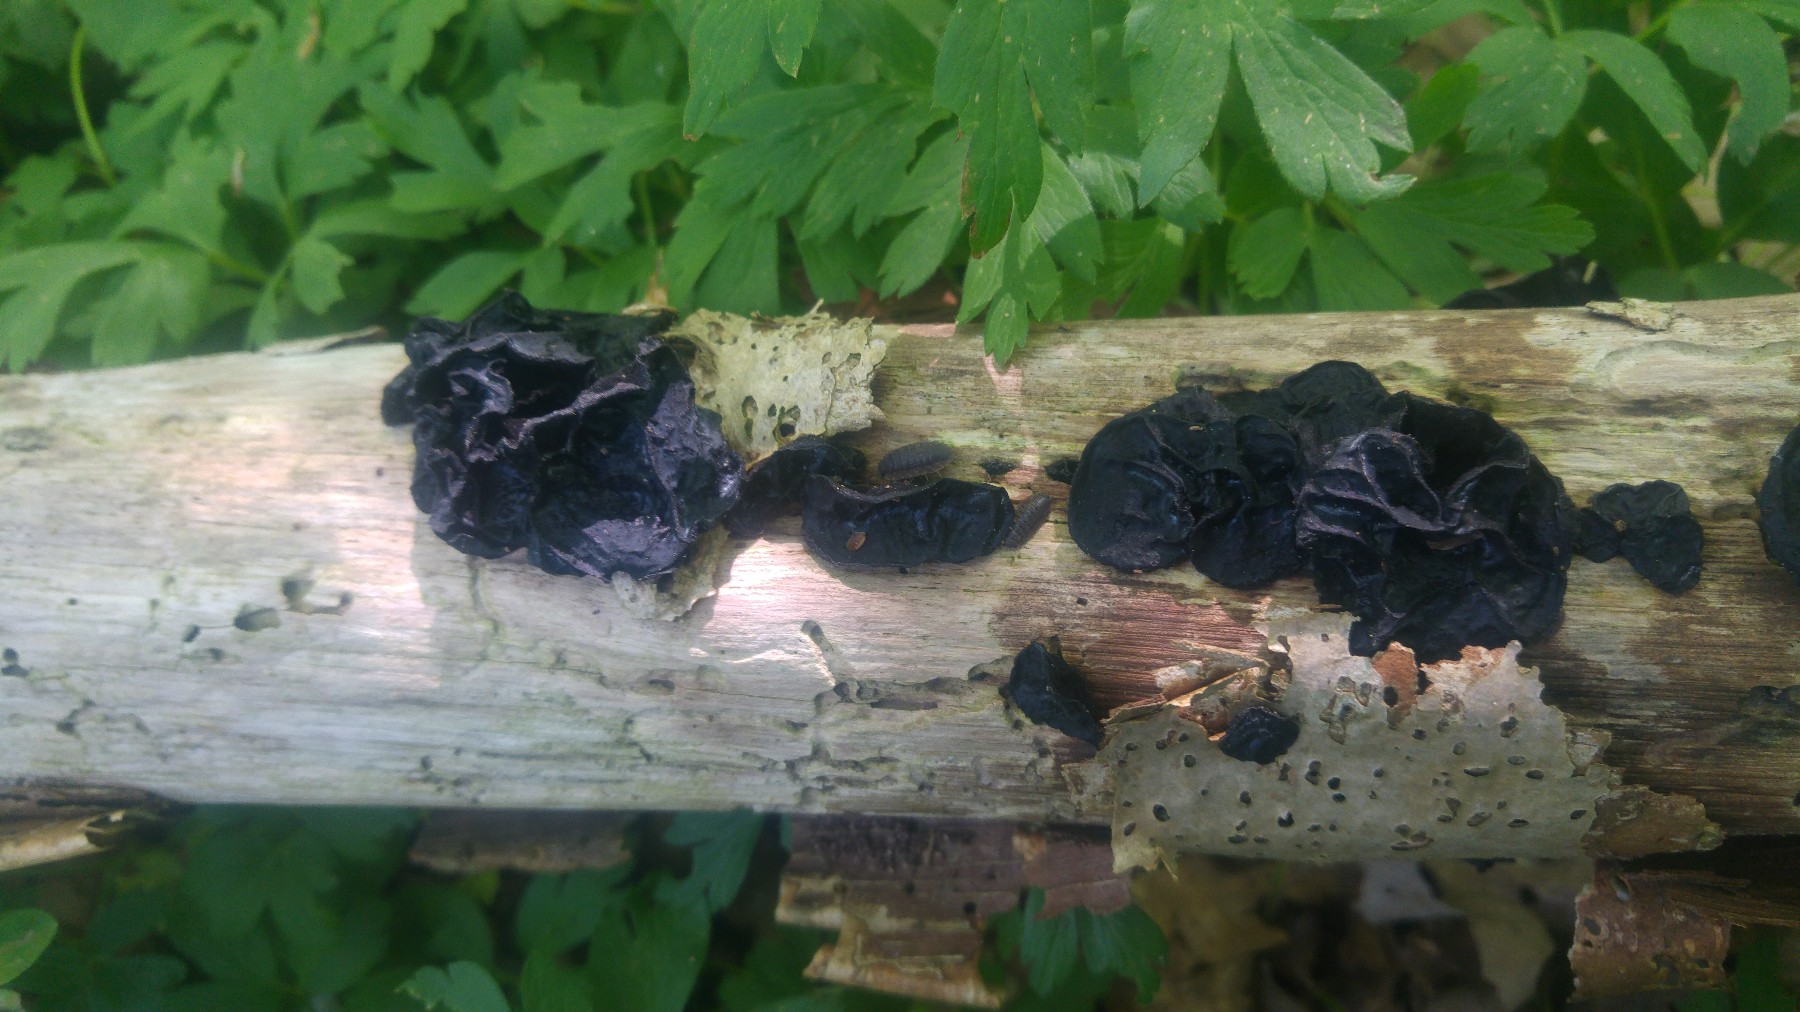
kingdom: Fungi
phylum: Basidiomycota
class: Agaricomycetes
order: Auriculariales
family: Auriculariaceae
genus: Exidia
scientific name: Exidia nigricans
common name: almindelig bævretop
